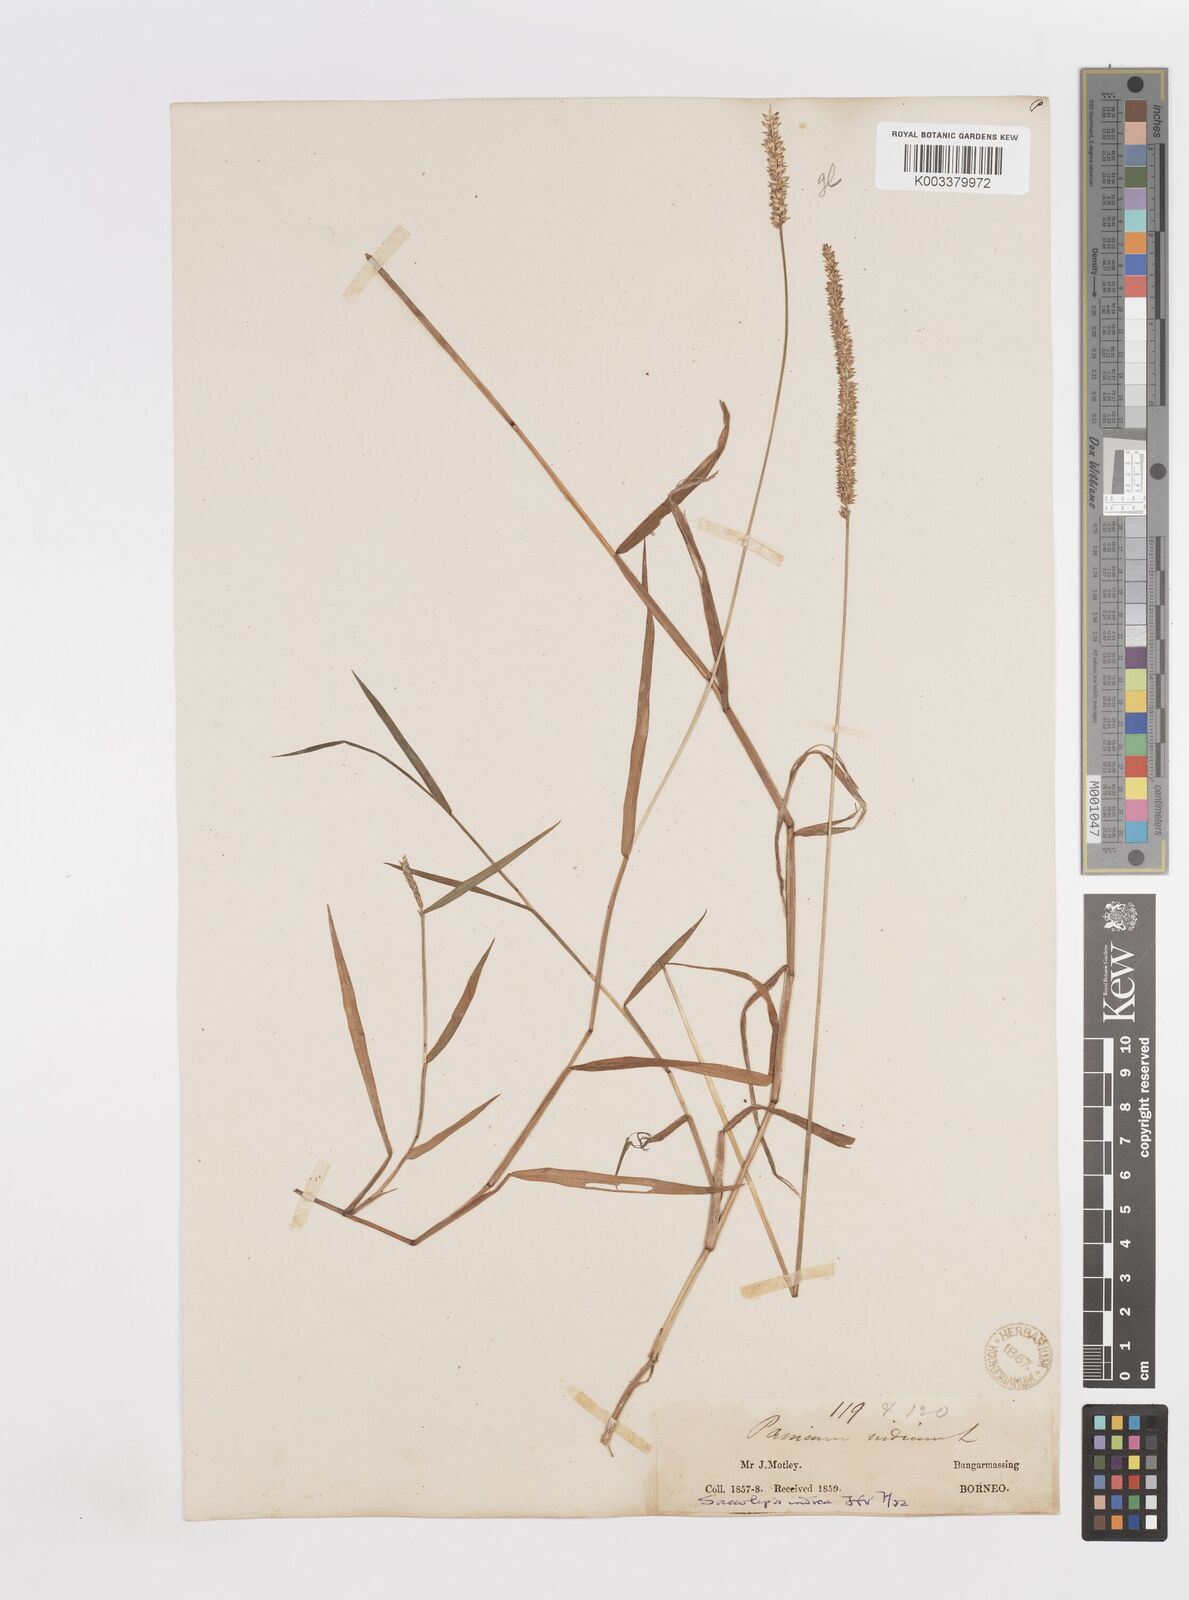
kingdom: Plantae
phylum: Tracheophyta
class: Liliopsida
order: Poales
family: Poaceae
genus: Sacciolepis
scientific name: Sacciolepis indica
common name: Glenwoodgrass
